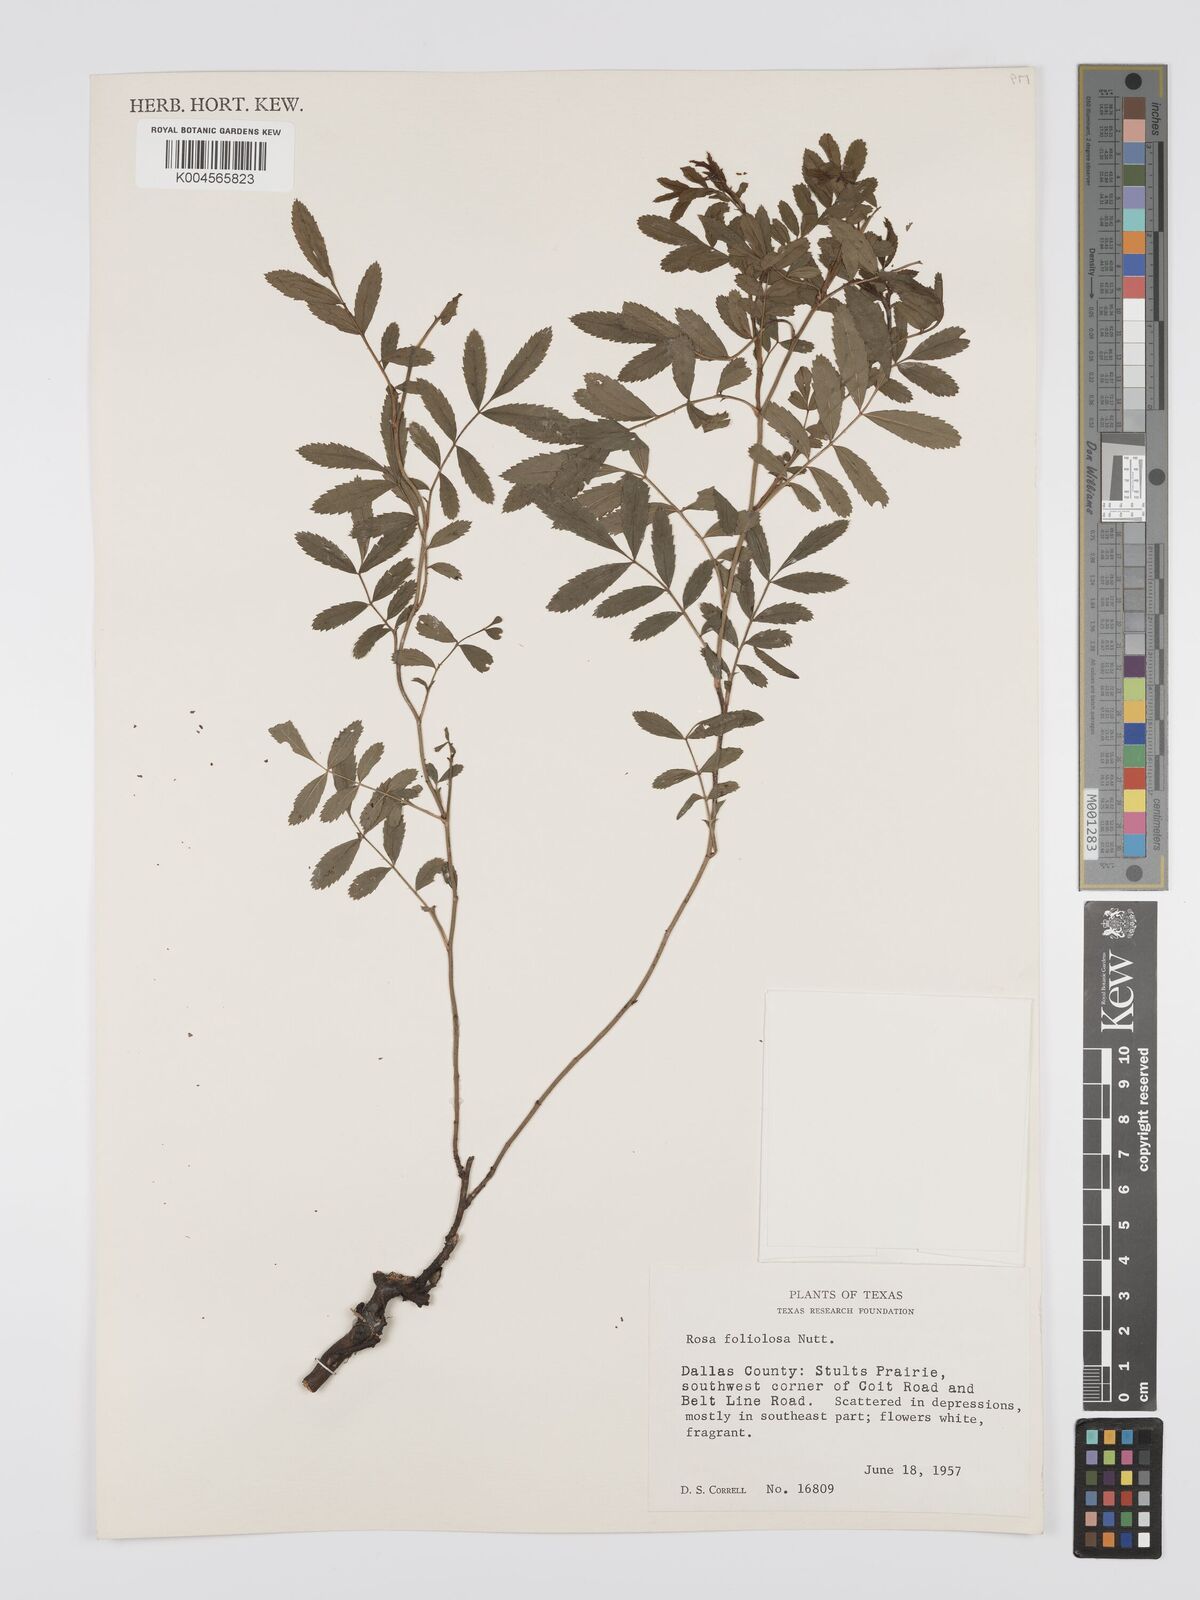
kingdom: Plantae
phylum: Tracheophyta
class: Magnoliopsida
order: Rosales
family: Rosaceae
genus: Rosa
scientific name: Rosa foliolosa
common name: White prairie rose
